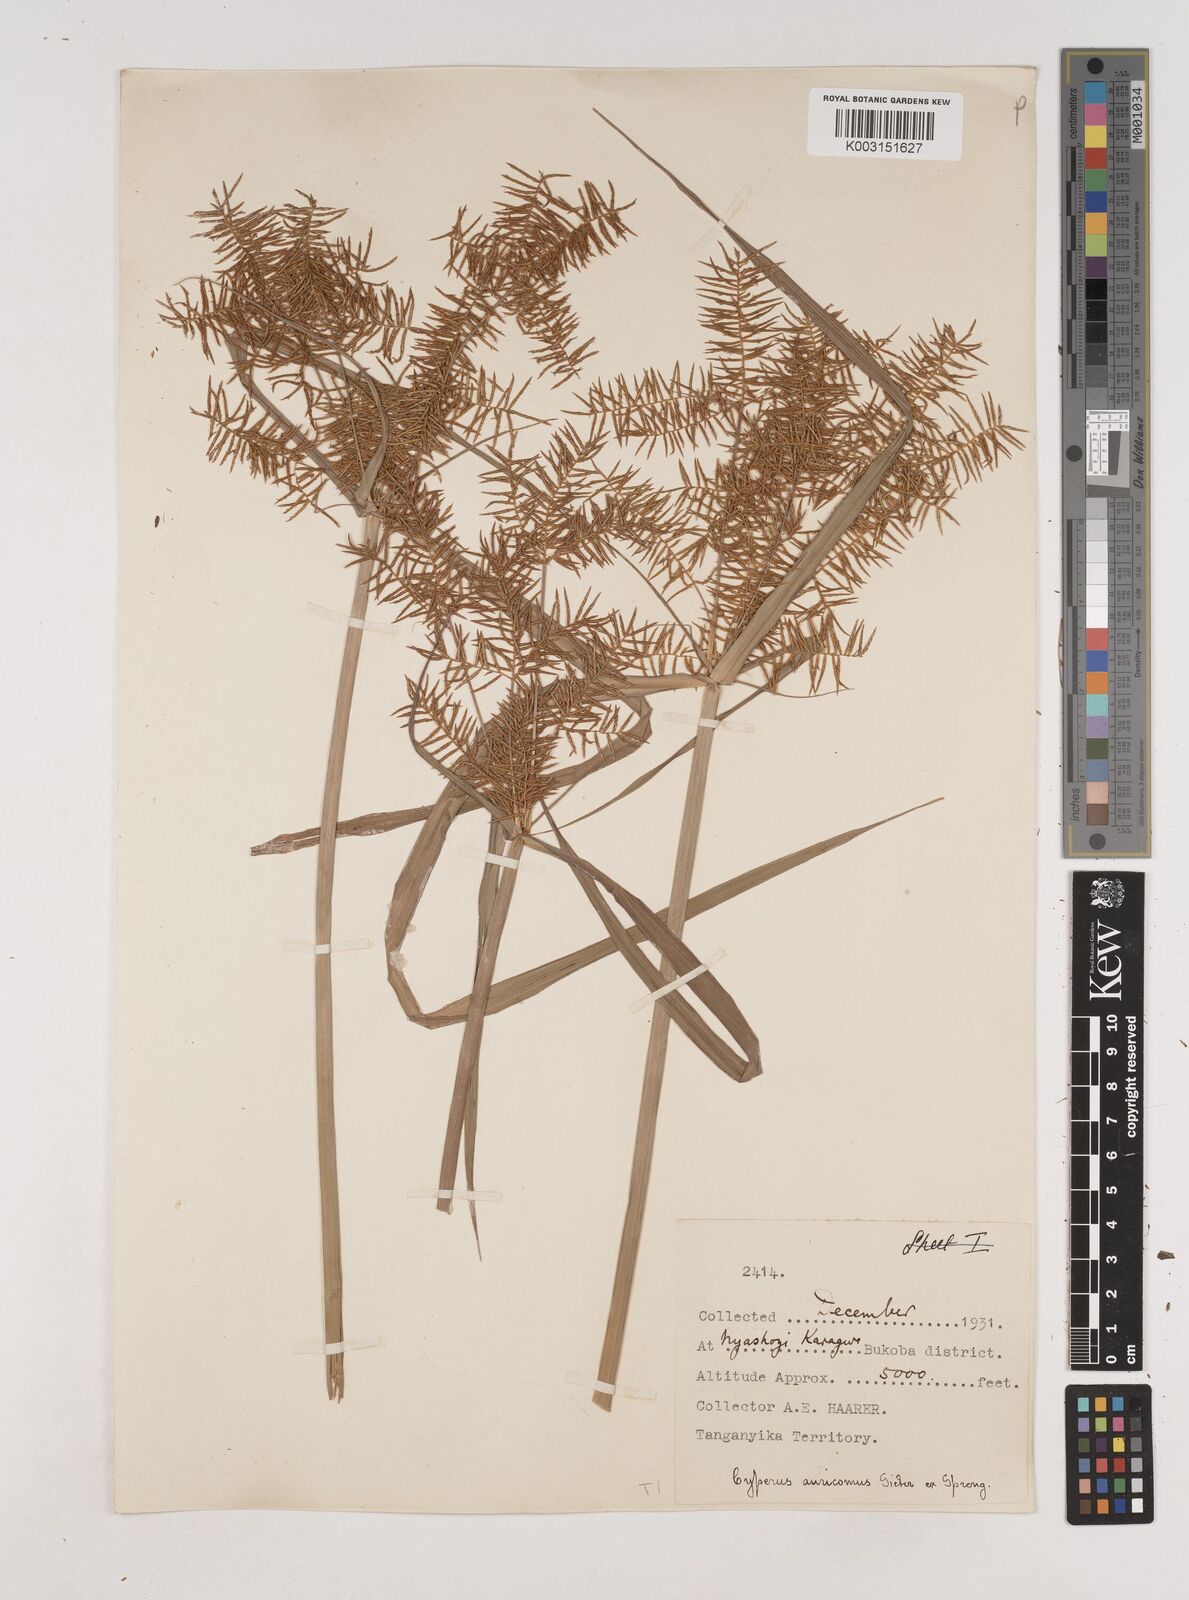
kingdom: Plantae
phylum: Tracheophyta
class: Liliopsida
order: Poales
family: Cyperaceae
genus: Cyperus
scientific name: Cyperus digitatus
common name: Finger flatsedge
